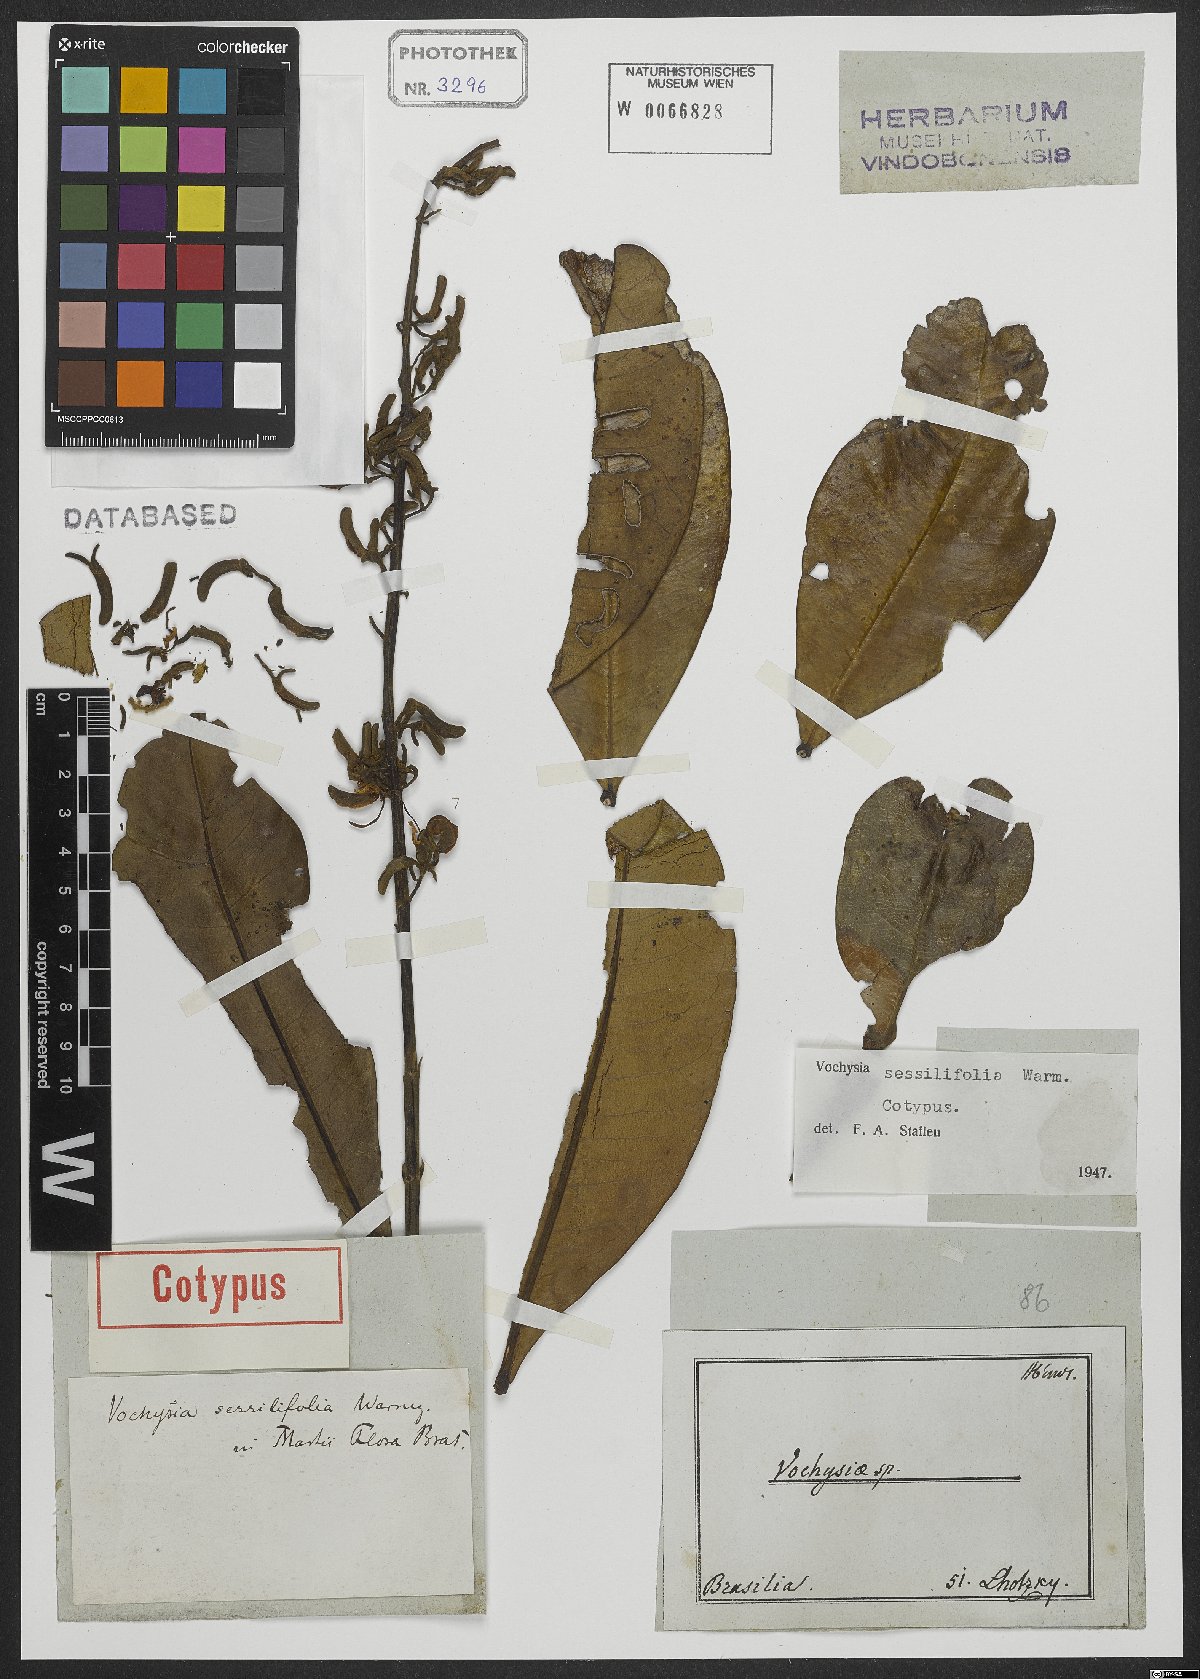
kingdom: Plantae
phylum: Tracheophyta
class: Magnoliopsida
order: Myrtales
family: Vochysiaceae
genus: Vochysia
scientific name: Vochysia sessilifolia
